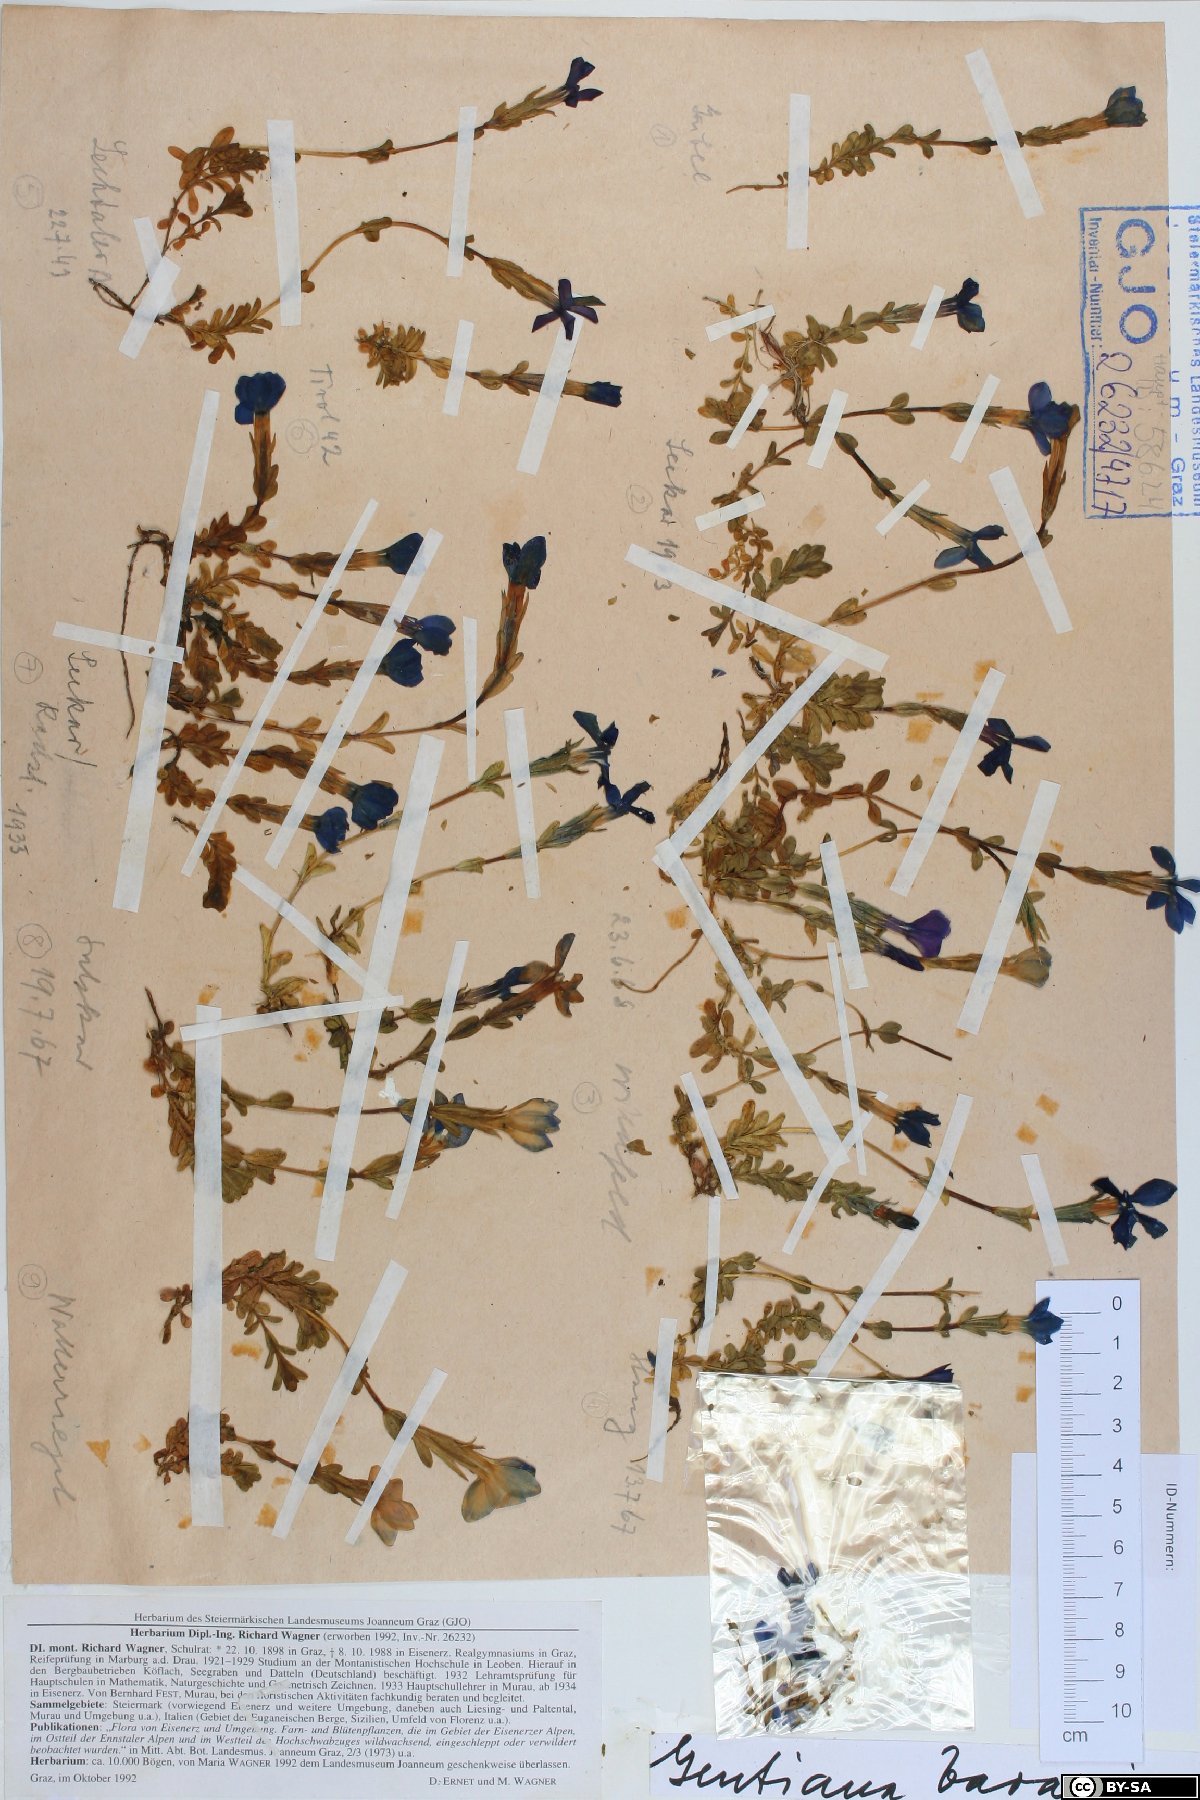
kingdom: Plantae
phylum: Tracheophyta
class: Magnoliopsida
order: Gentianales
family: Gentianaceae
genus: Gentiana
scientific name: Gentiana bavarica
